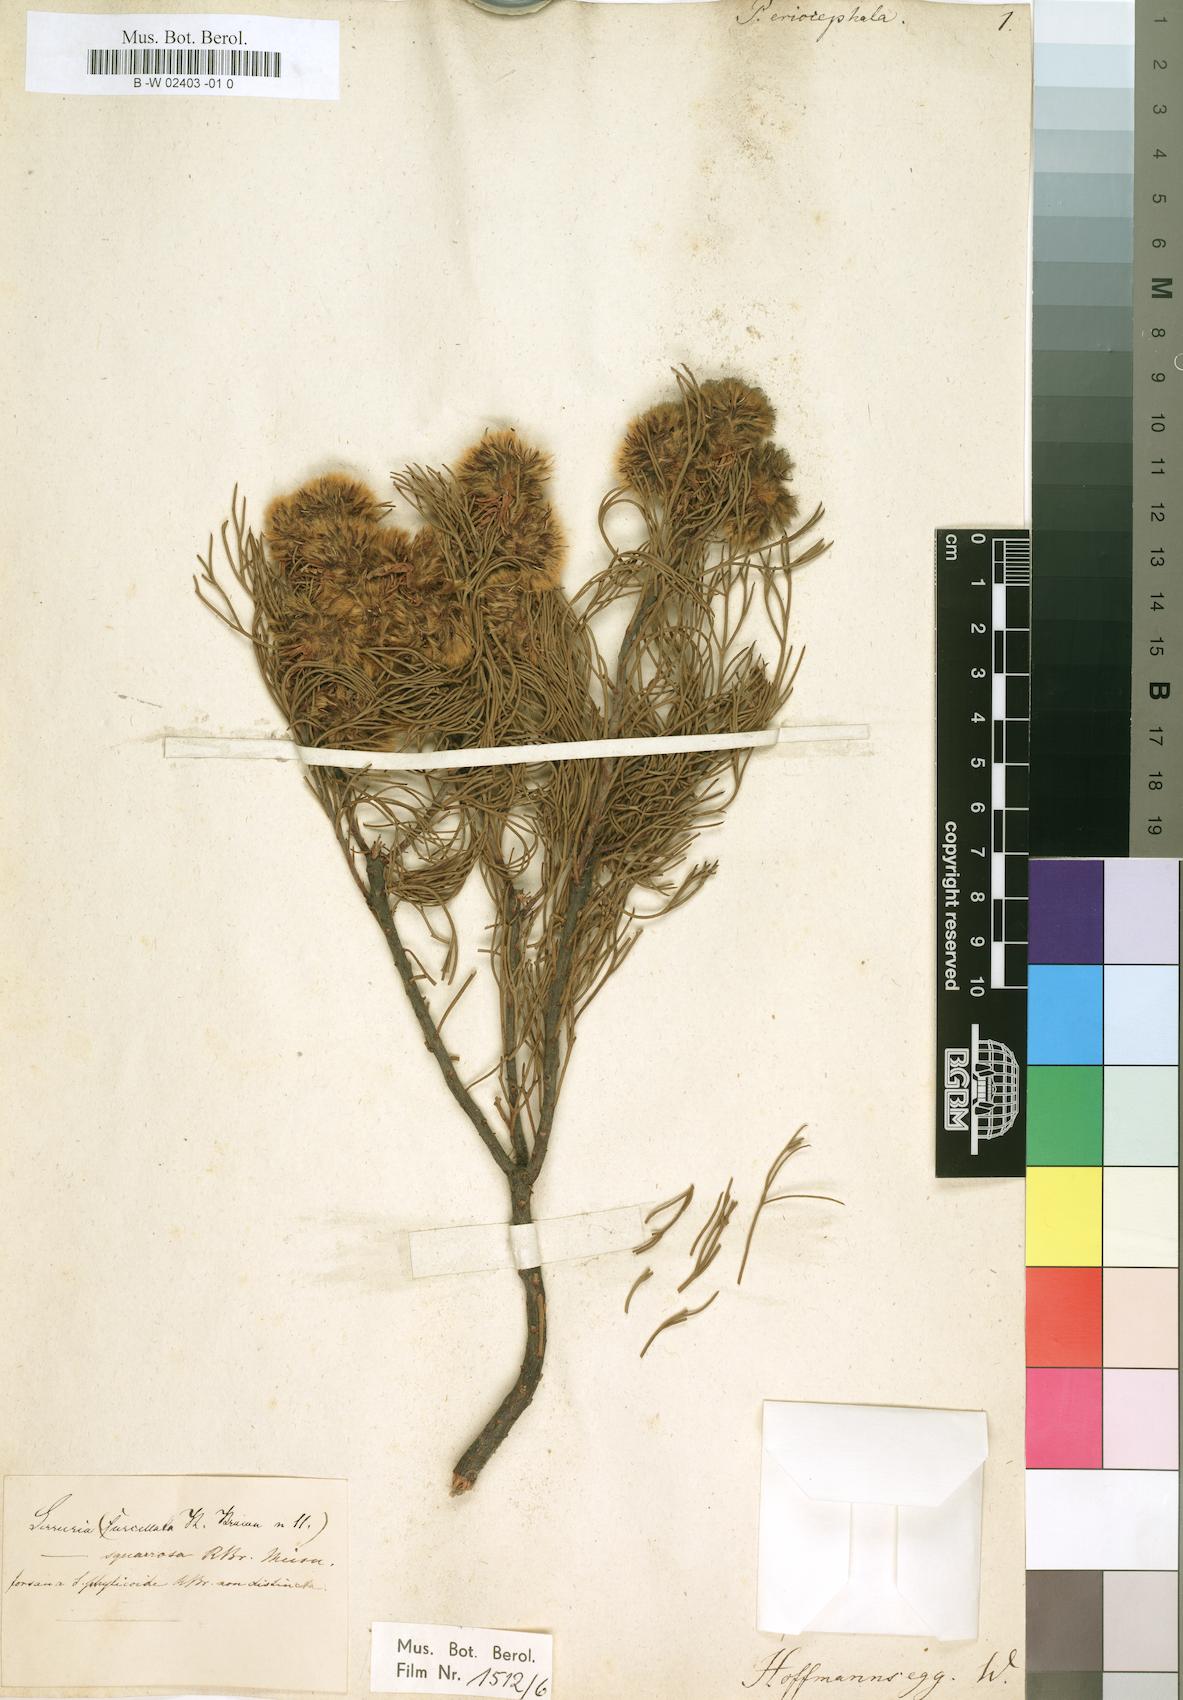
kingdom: Plantae
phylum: Tracheophyta
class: Magnoliopsida
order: Proteales
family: Proteaceae
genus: Serruria
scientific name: Serruria phylicoides
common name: Bearded spiderhead
